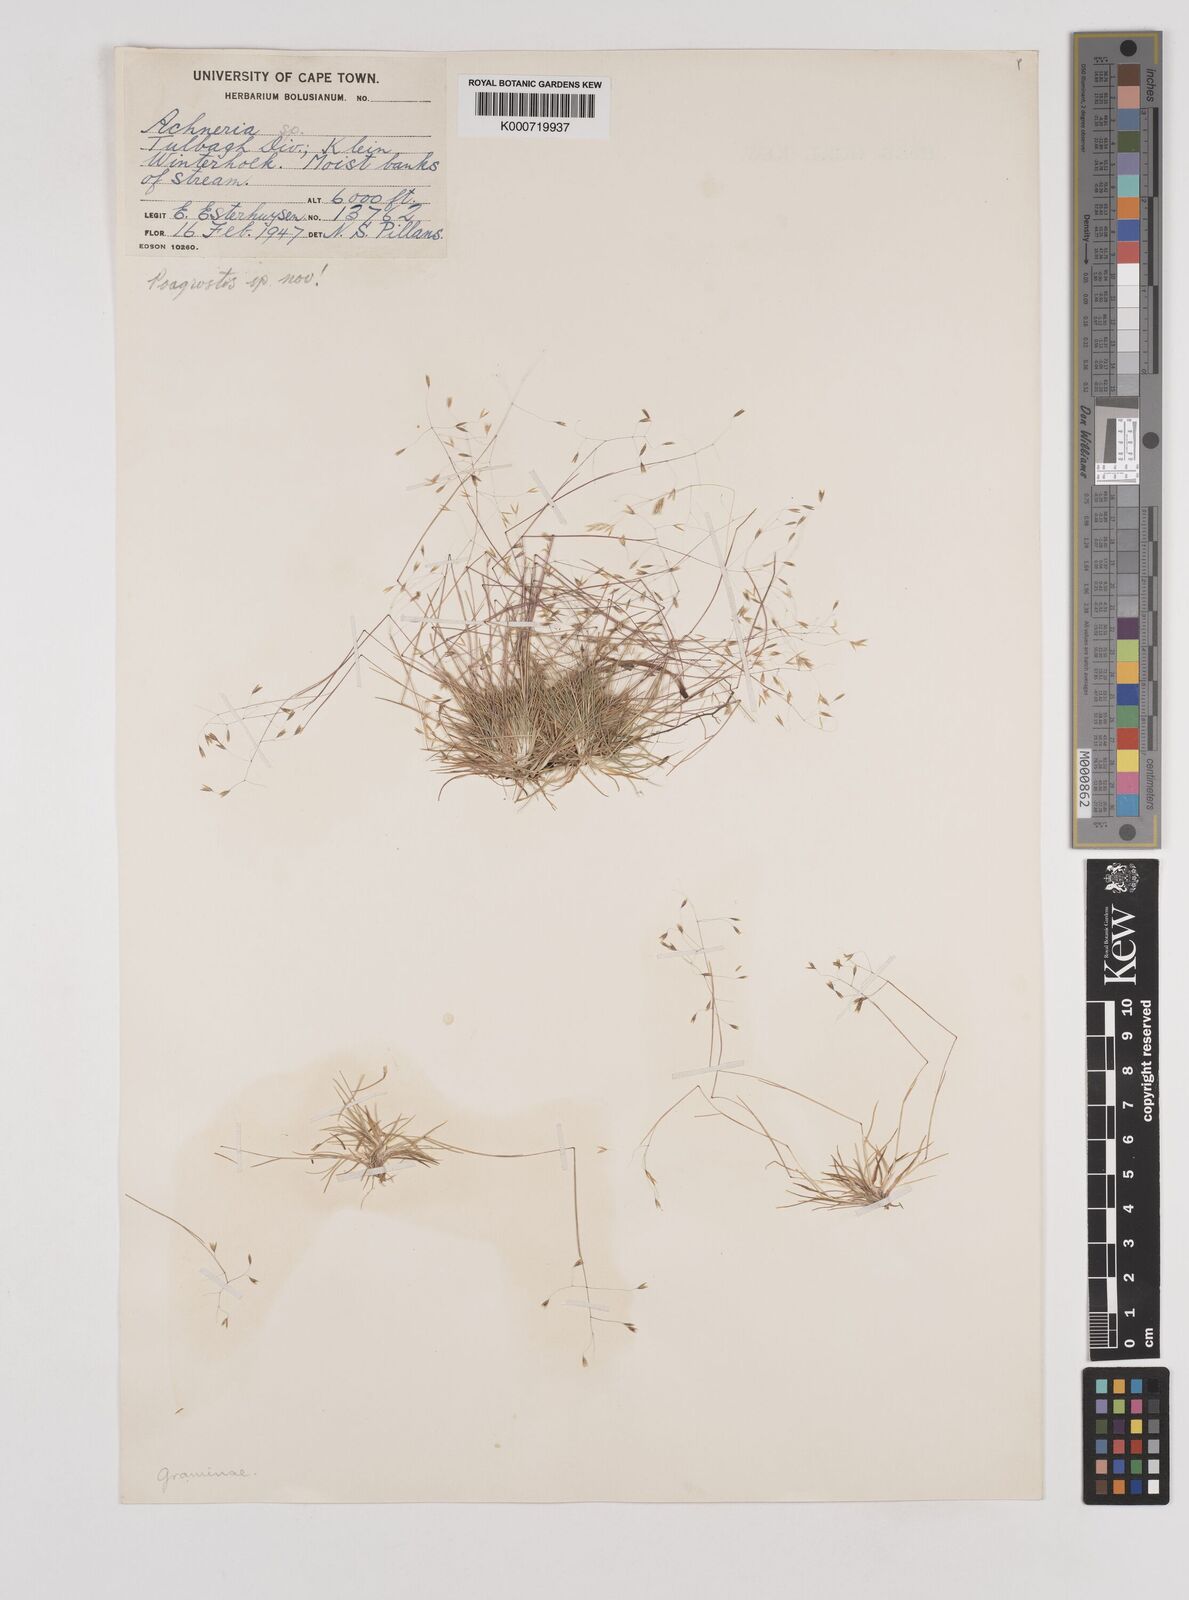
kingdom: Plantae
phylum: Tracheophyta
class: Liliopsida
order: Poales
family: Poaceae
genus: Pentameris
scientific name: Pentameris pusilla
